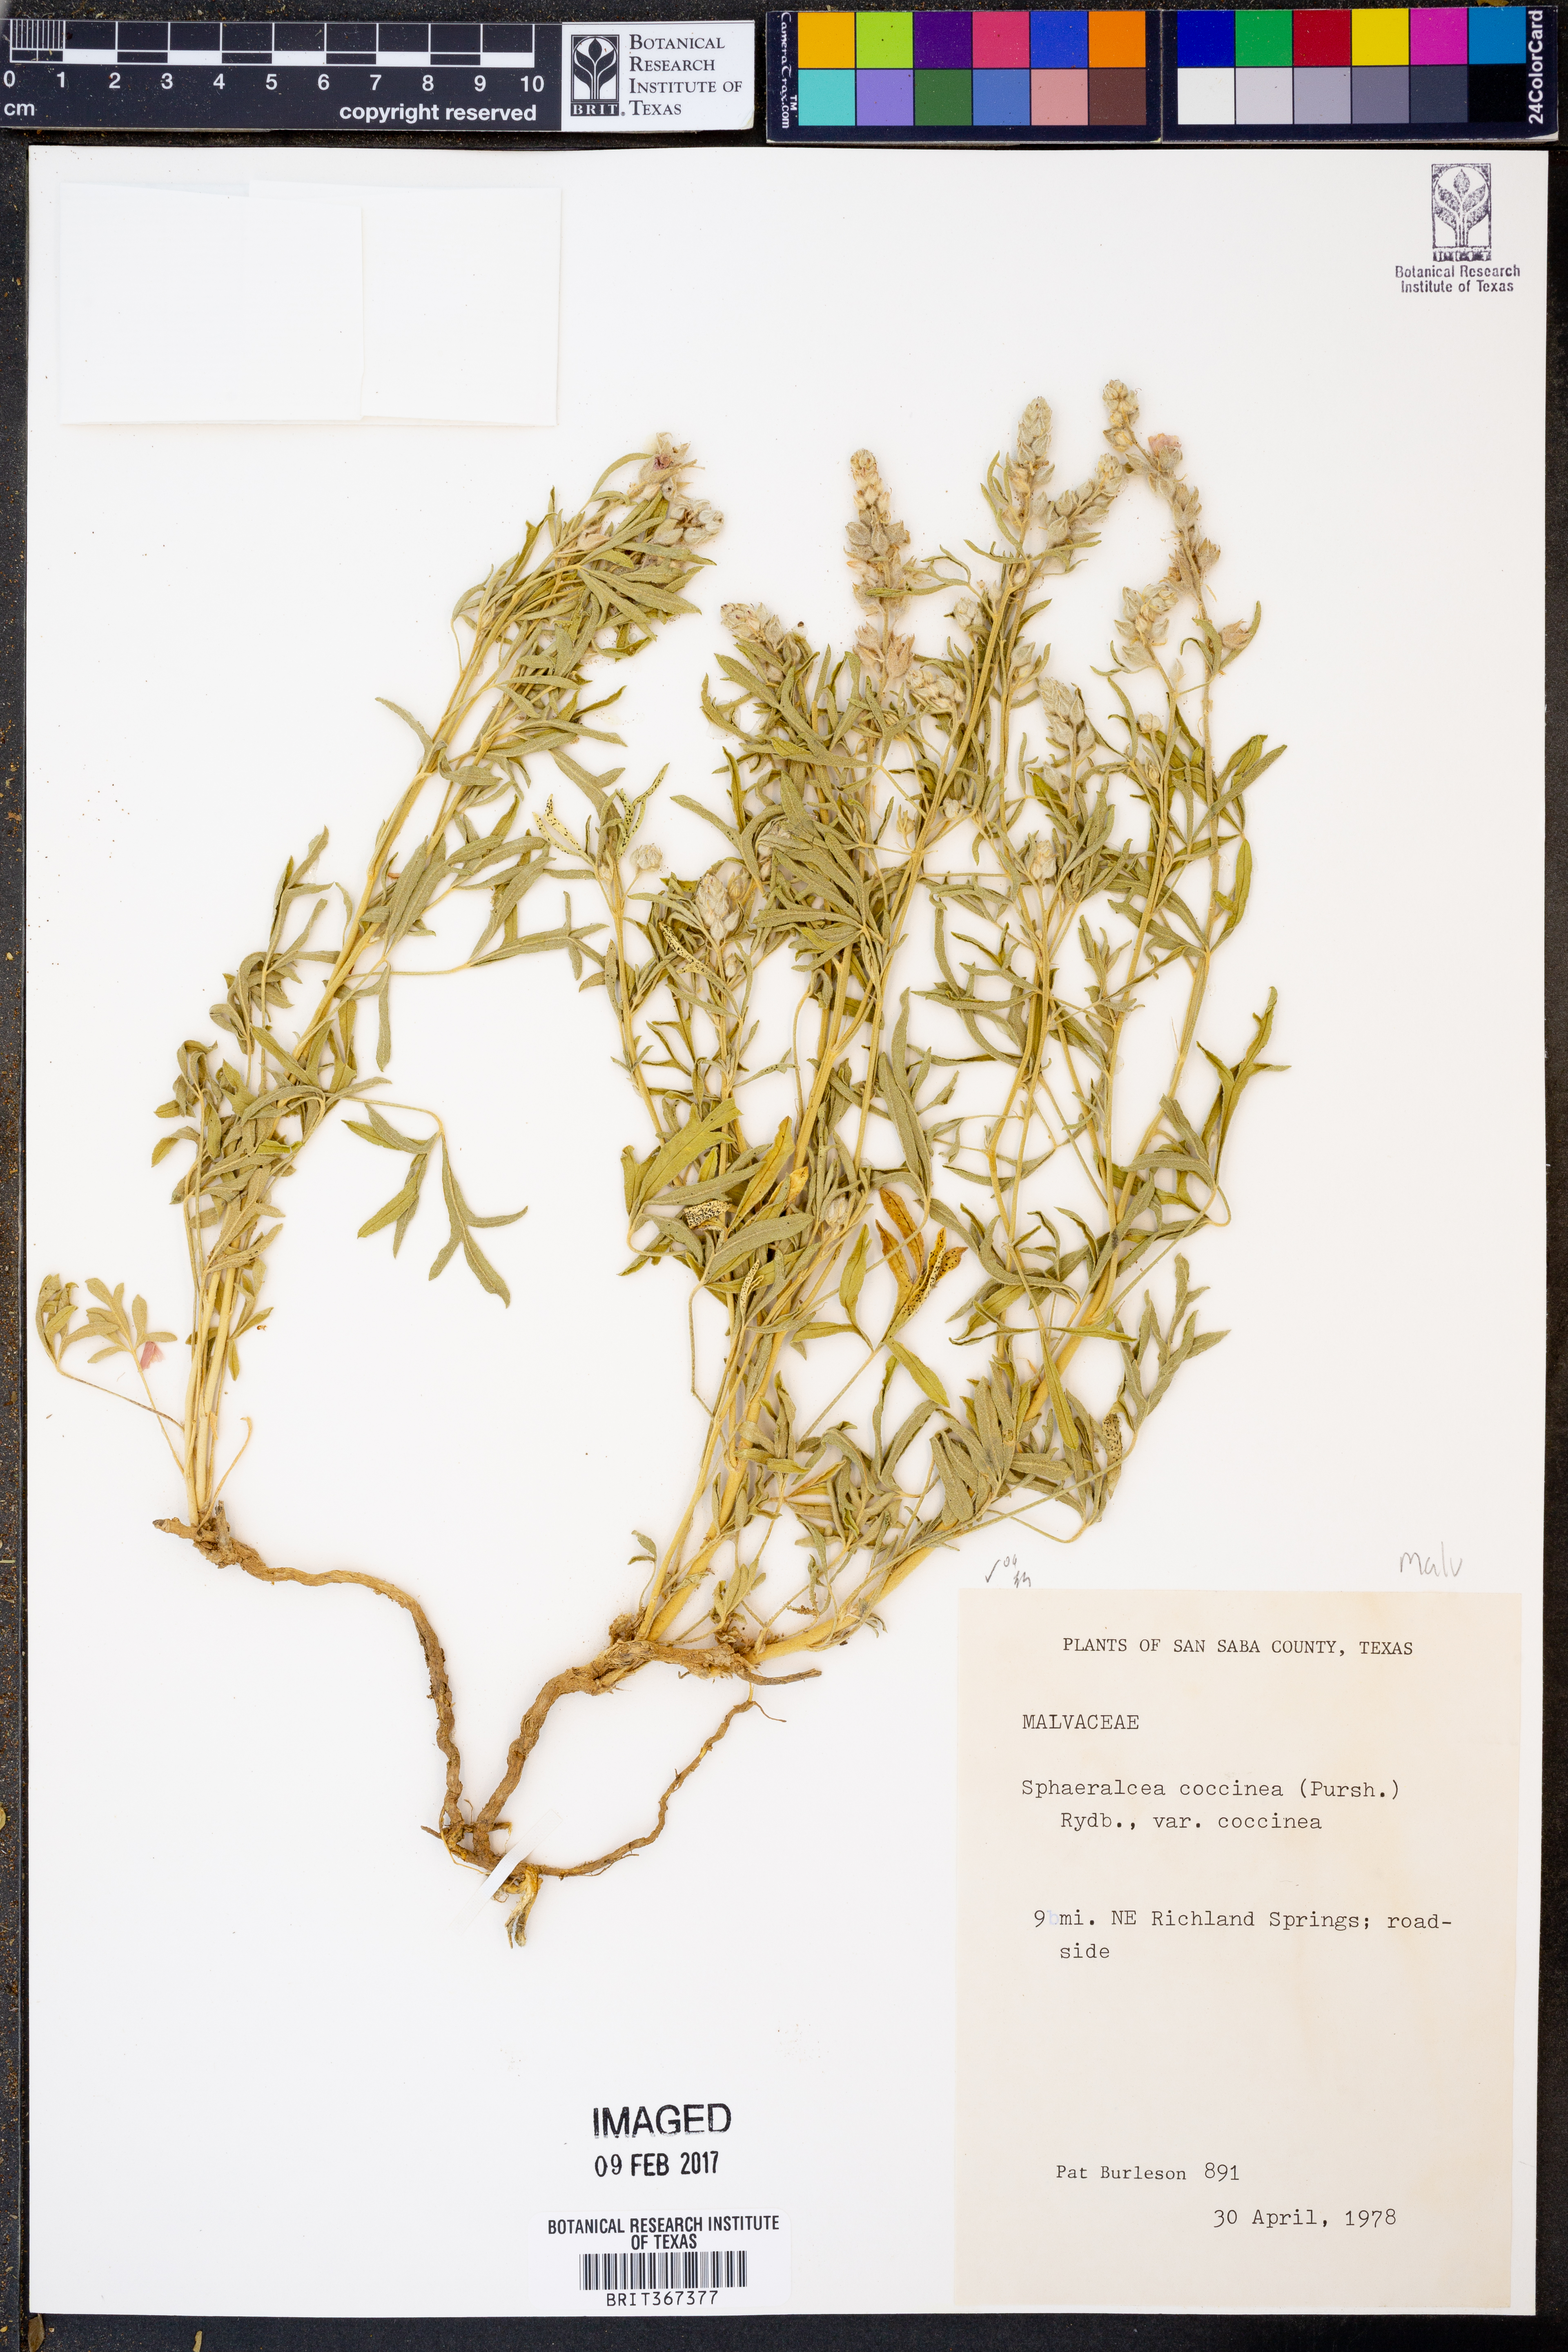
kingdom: Plantae
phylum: Tracheophyta
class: Magnoliopsida
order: Malvales
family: Malvaceae
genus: Sphaeralcea
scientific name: Sphaeralcea coccinea
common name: Moss-rose
